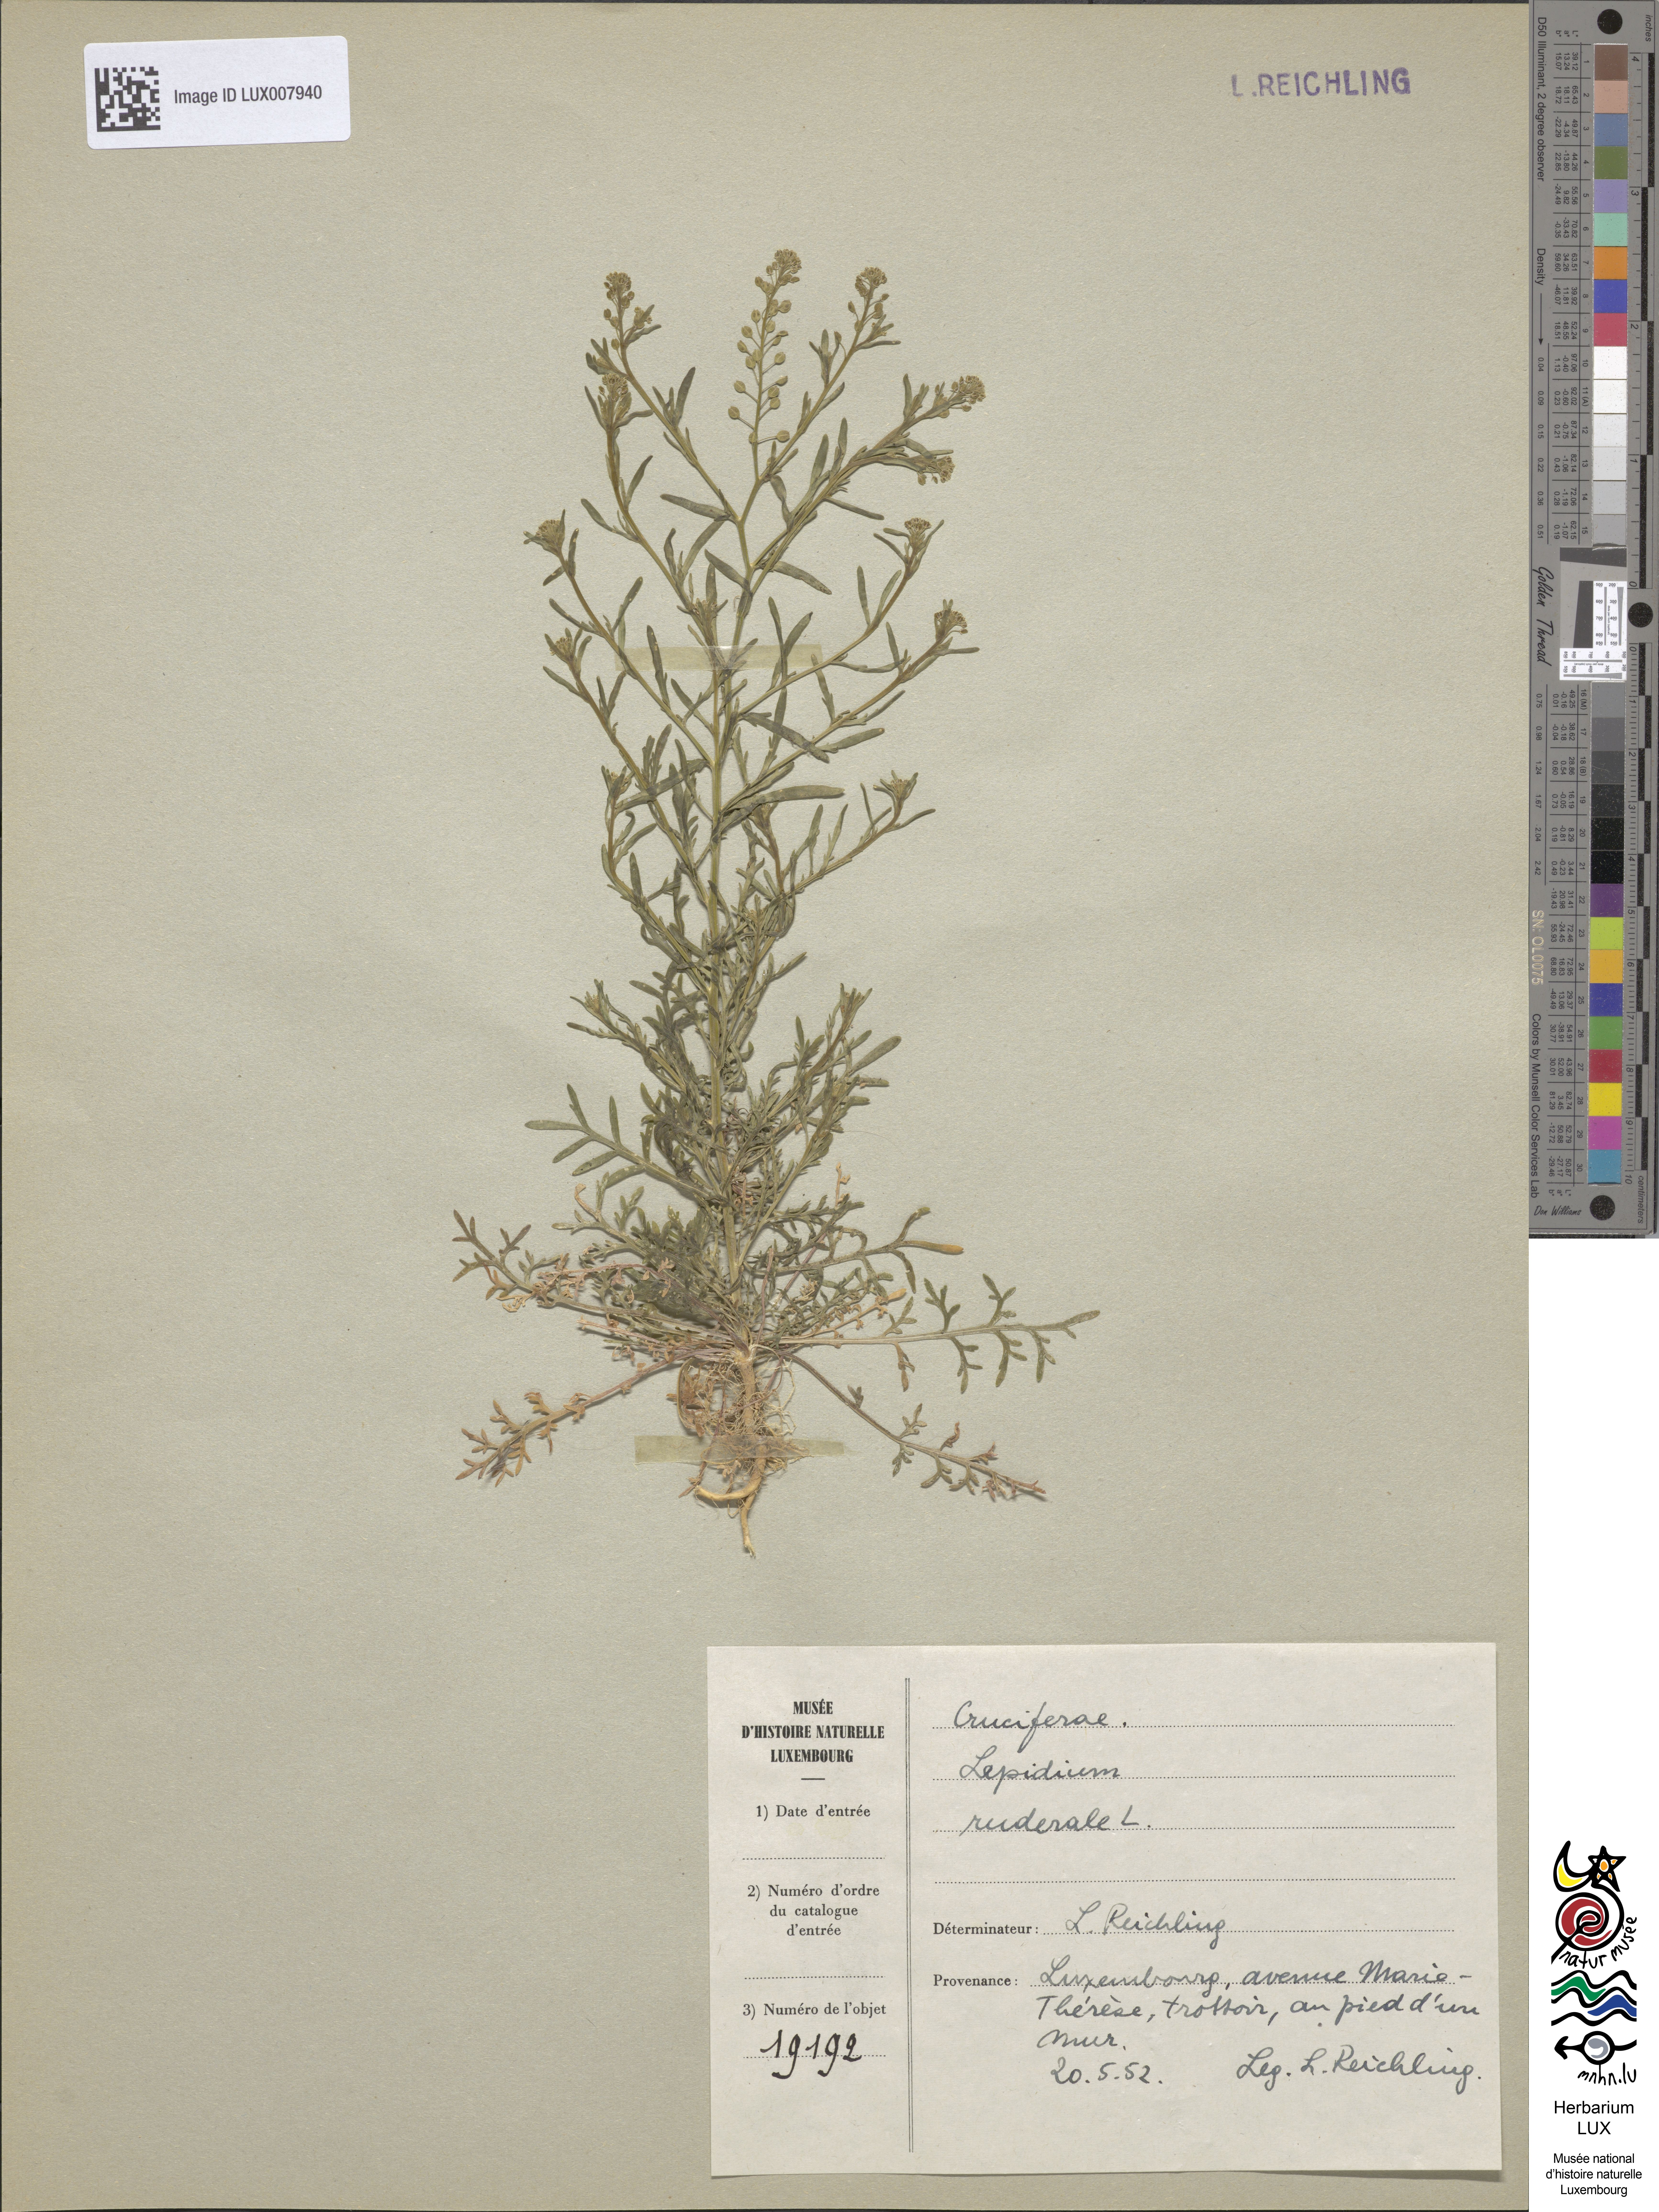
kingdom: Plantae
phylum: Tracheophyta
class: Magnoliopsida
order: Brassicales
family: Brassicaceae
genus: Lepidium
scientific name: Lepidium ruderale
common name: Narrow-leaved pepperwort
